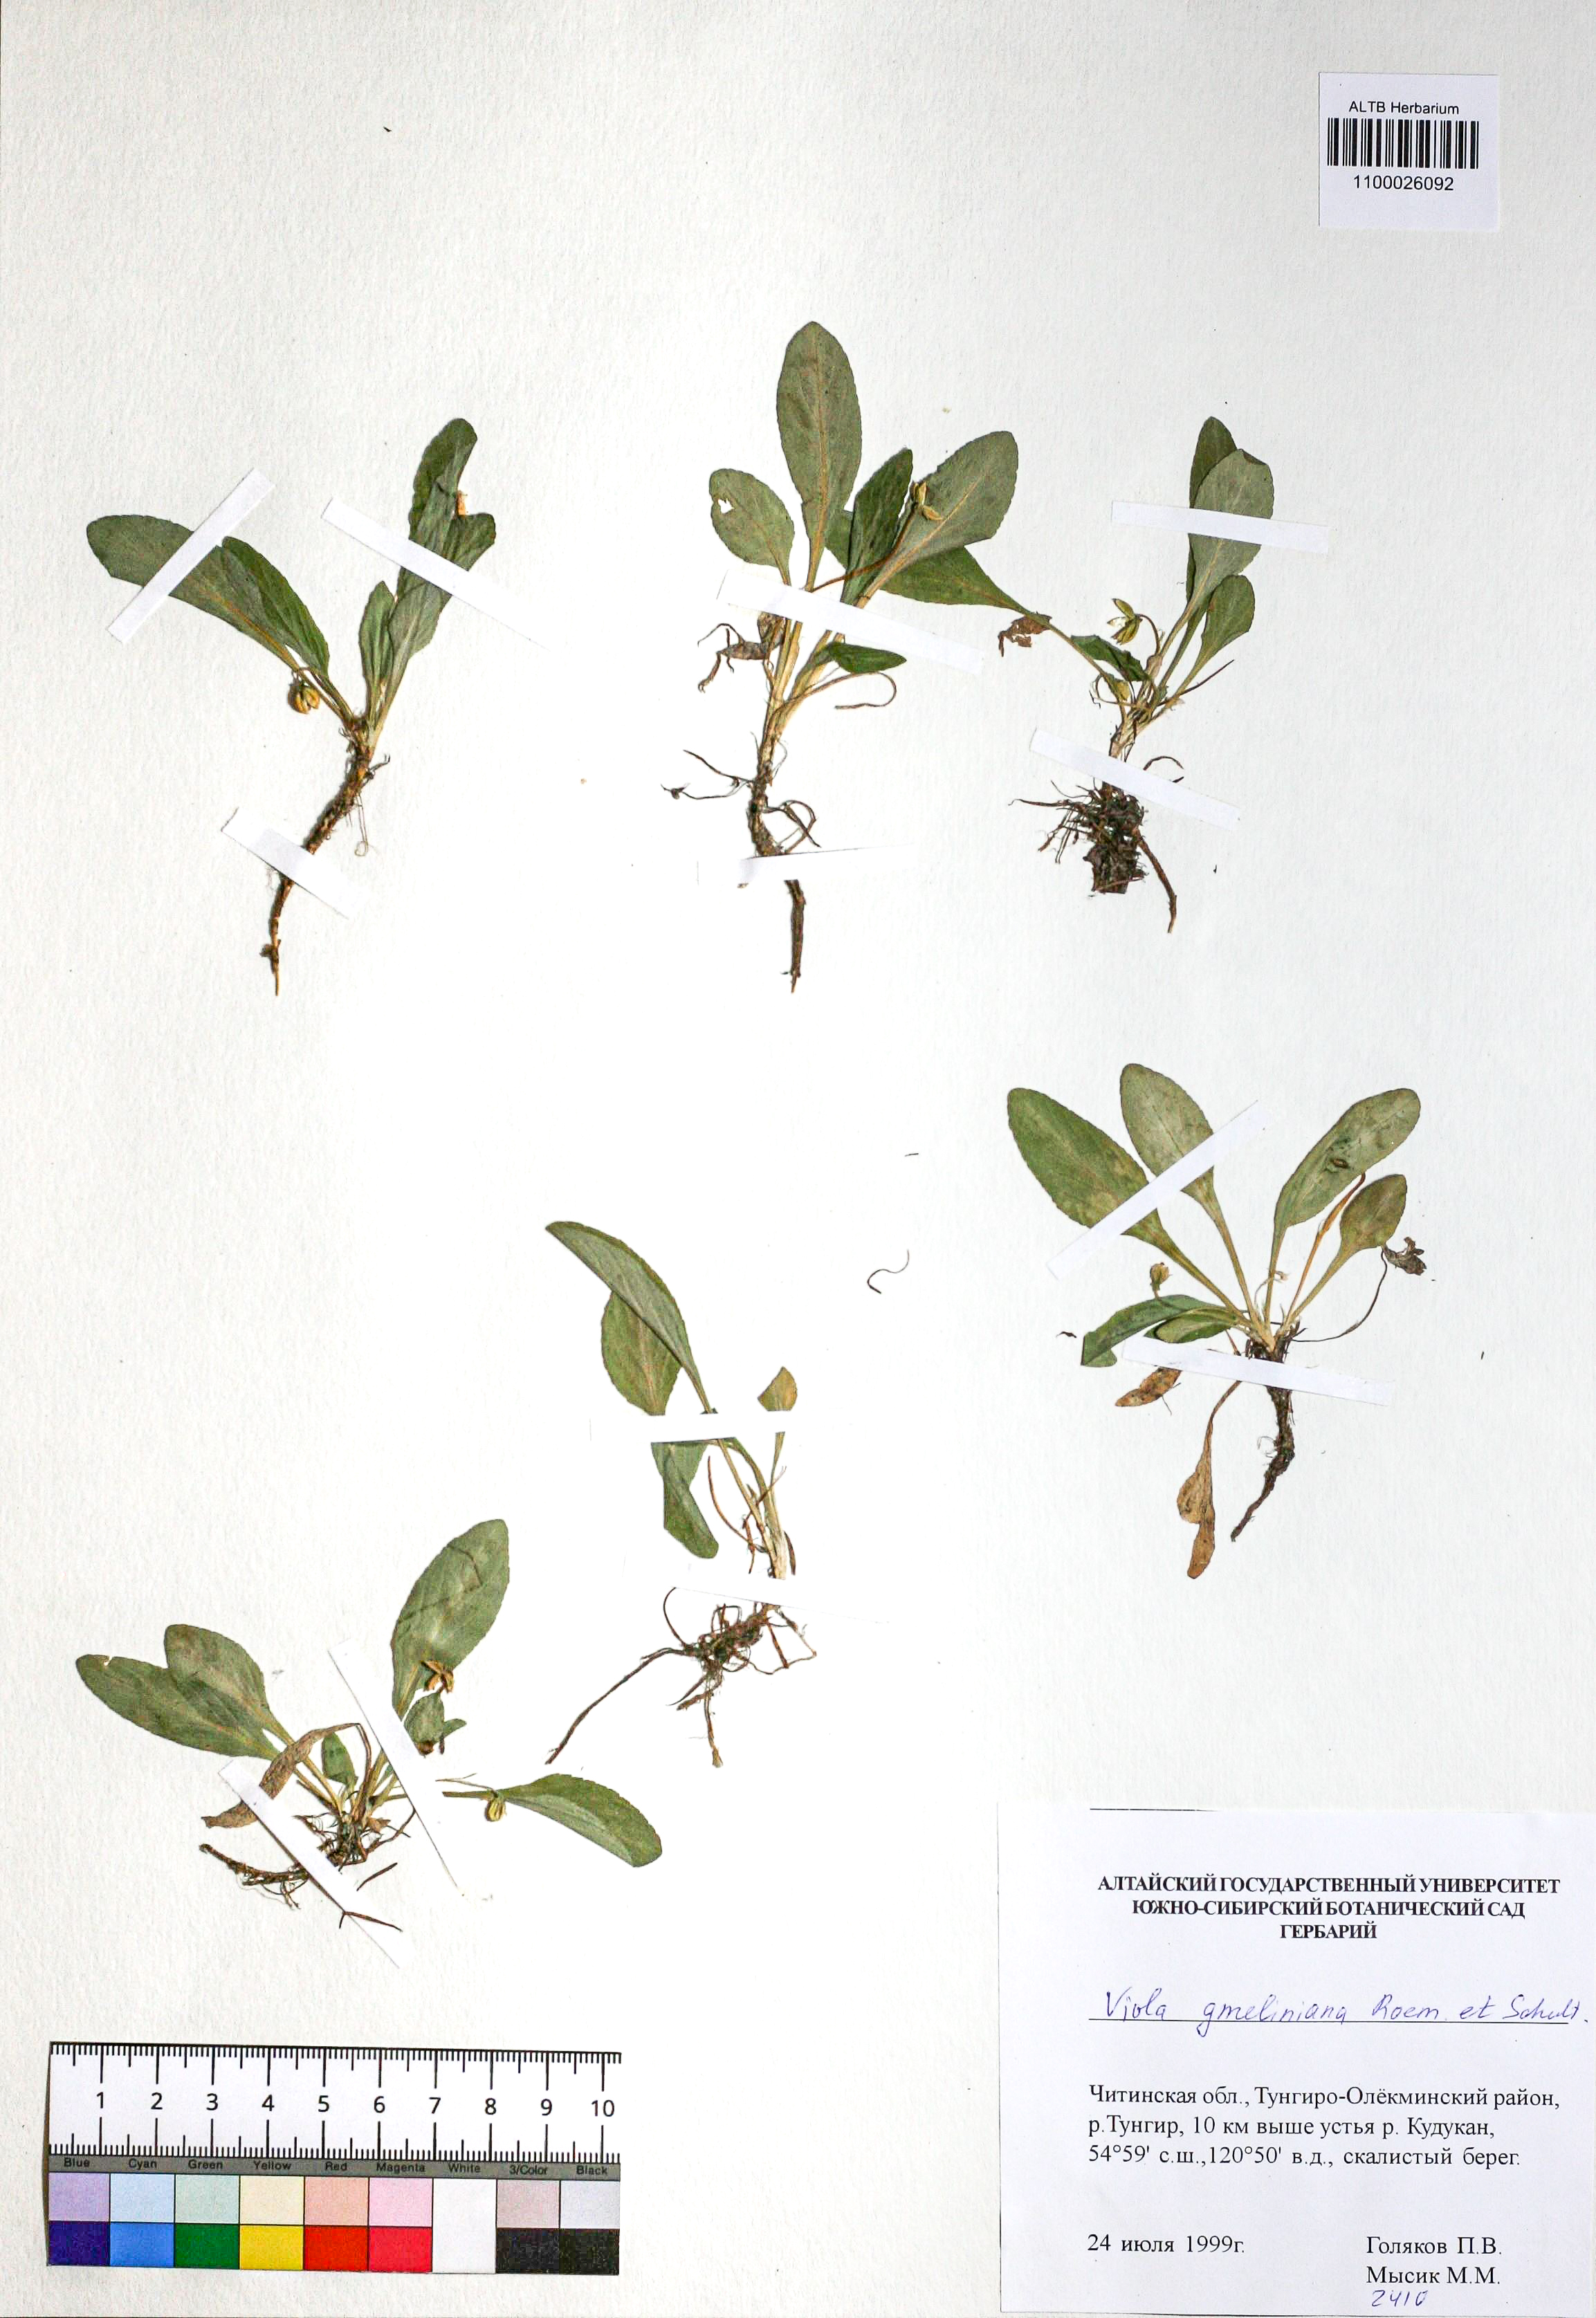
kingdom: Plantae
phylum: Tracheophyta
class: Magnoliopsida
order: Malpighiales
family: Violaceae
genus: Viola
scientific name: Viola gmeliniana
